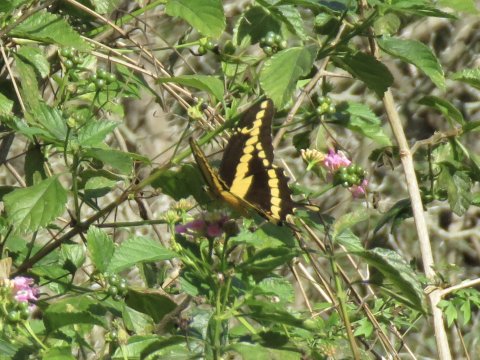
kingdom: Animalia
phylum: Arthropoda
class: Insecta
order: Lepidoptera
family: Papilionidae
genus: Papilio
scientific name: Papilio rumiko
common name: Western Giant Swallowtail
